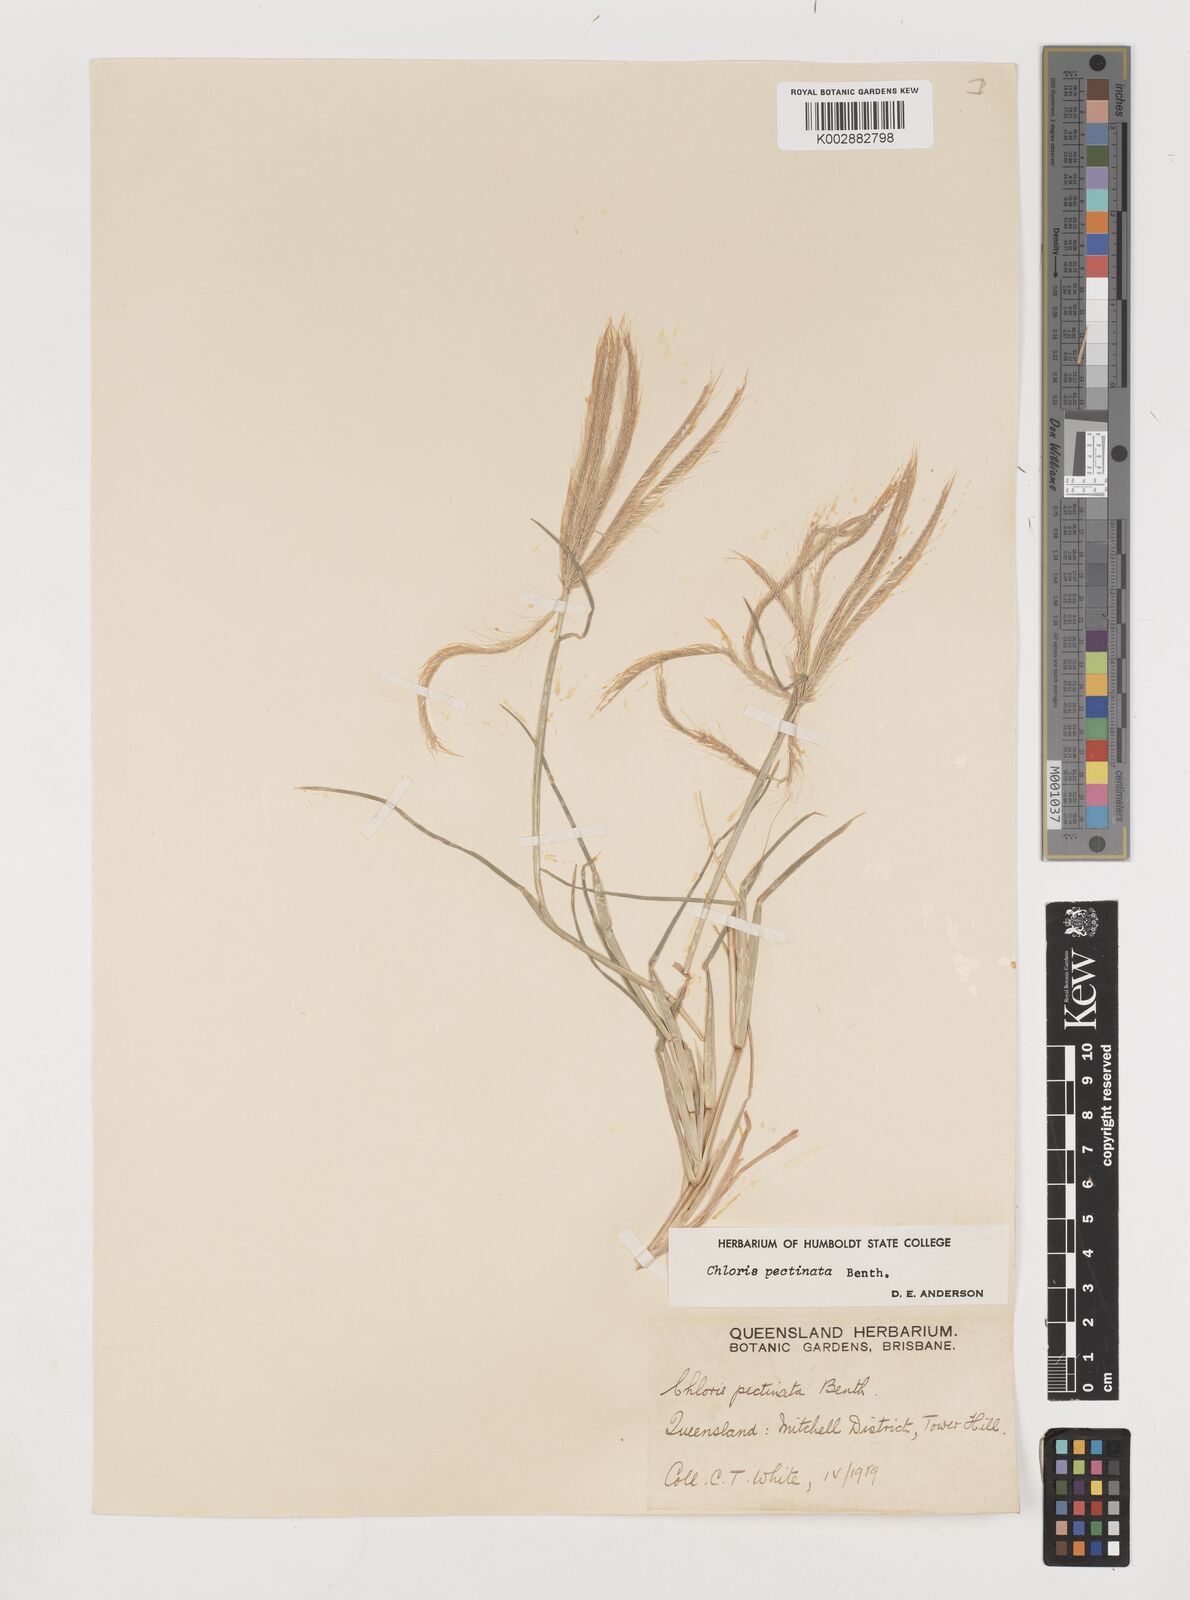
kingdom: Plantae
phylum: Tracheophyta
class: Liliopsida
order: Poales
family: Poaceae
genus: Chloris
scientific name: Chloris pectinata
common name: Comb windmill grass
